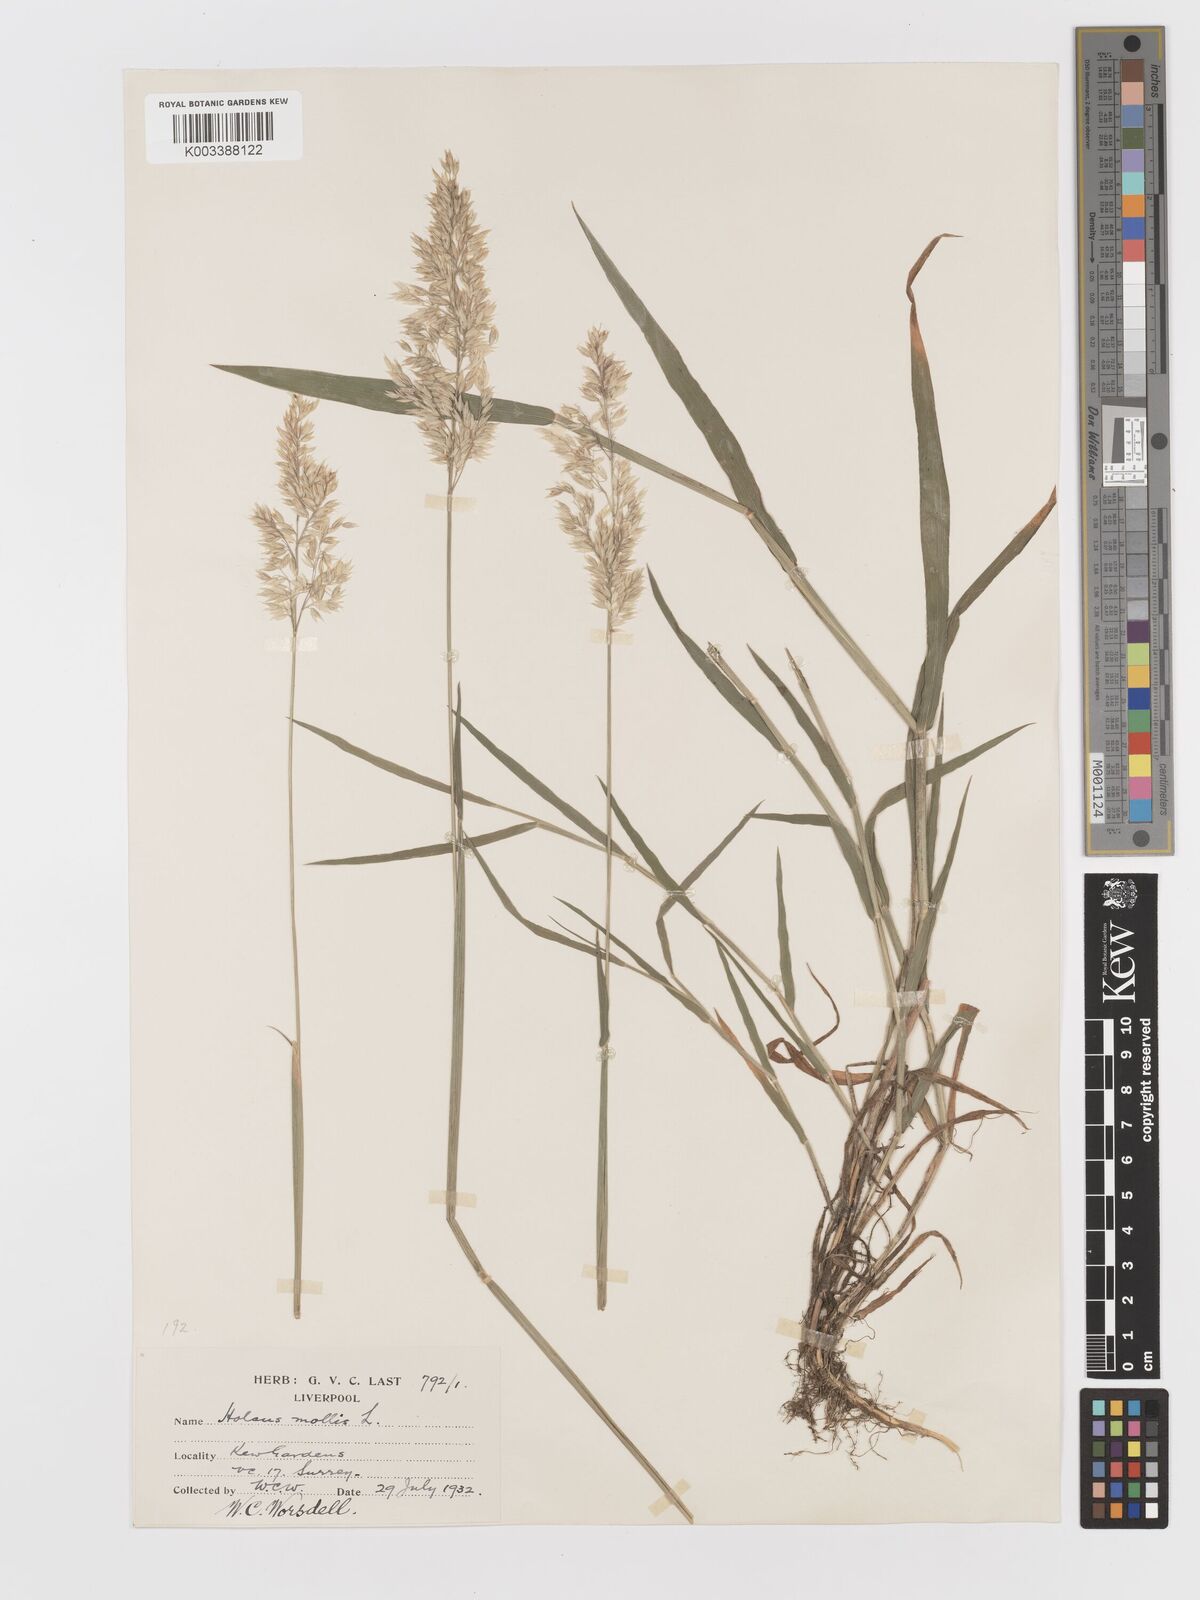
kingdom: Plantae
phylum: Tracheophyta
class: Liliopsida
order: Poales
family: Poaceae
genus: Holcus
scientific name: Holcus mollis
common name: Creeping velvetgrass
